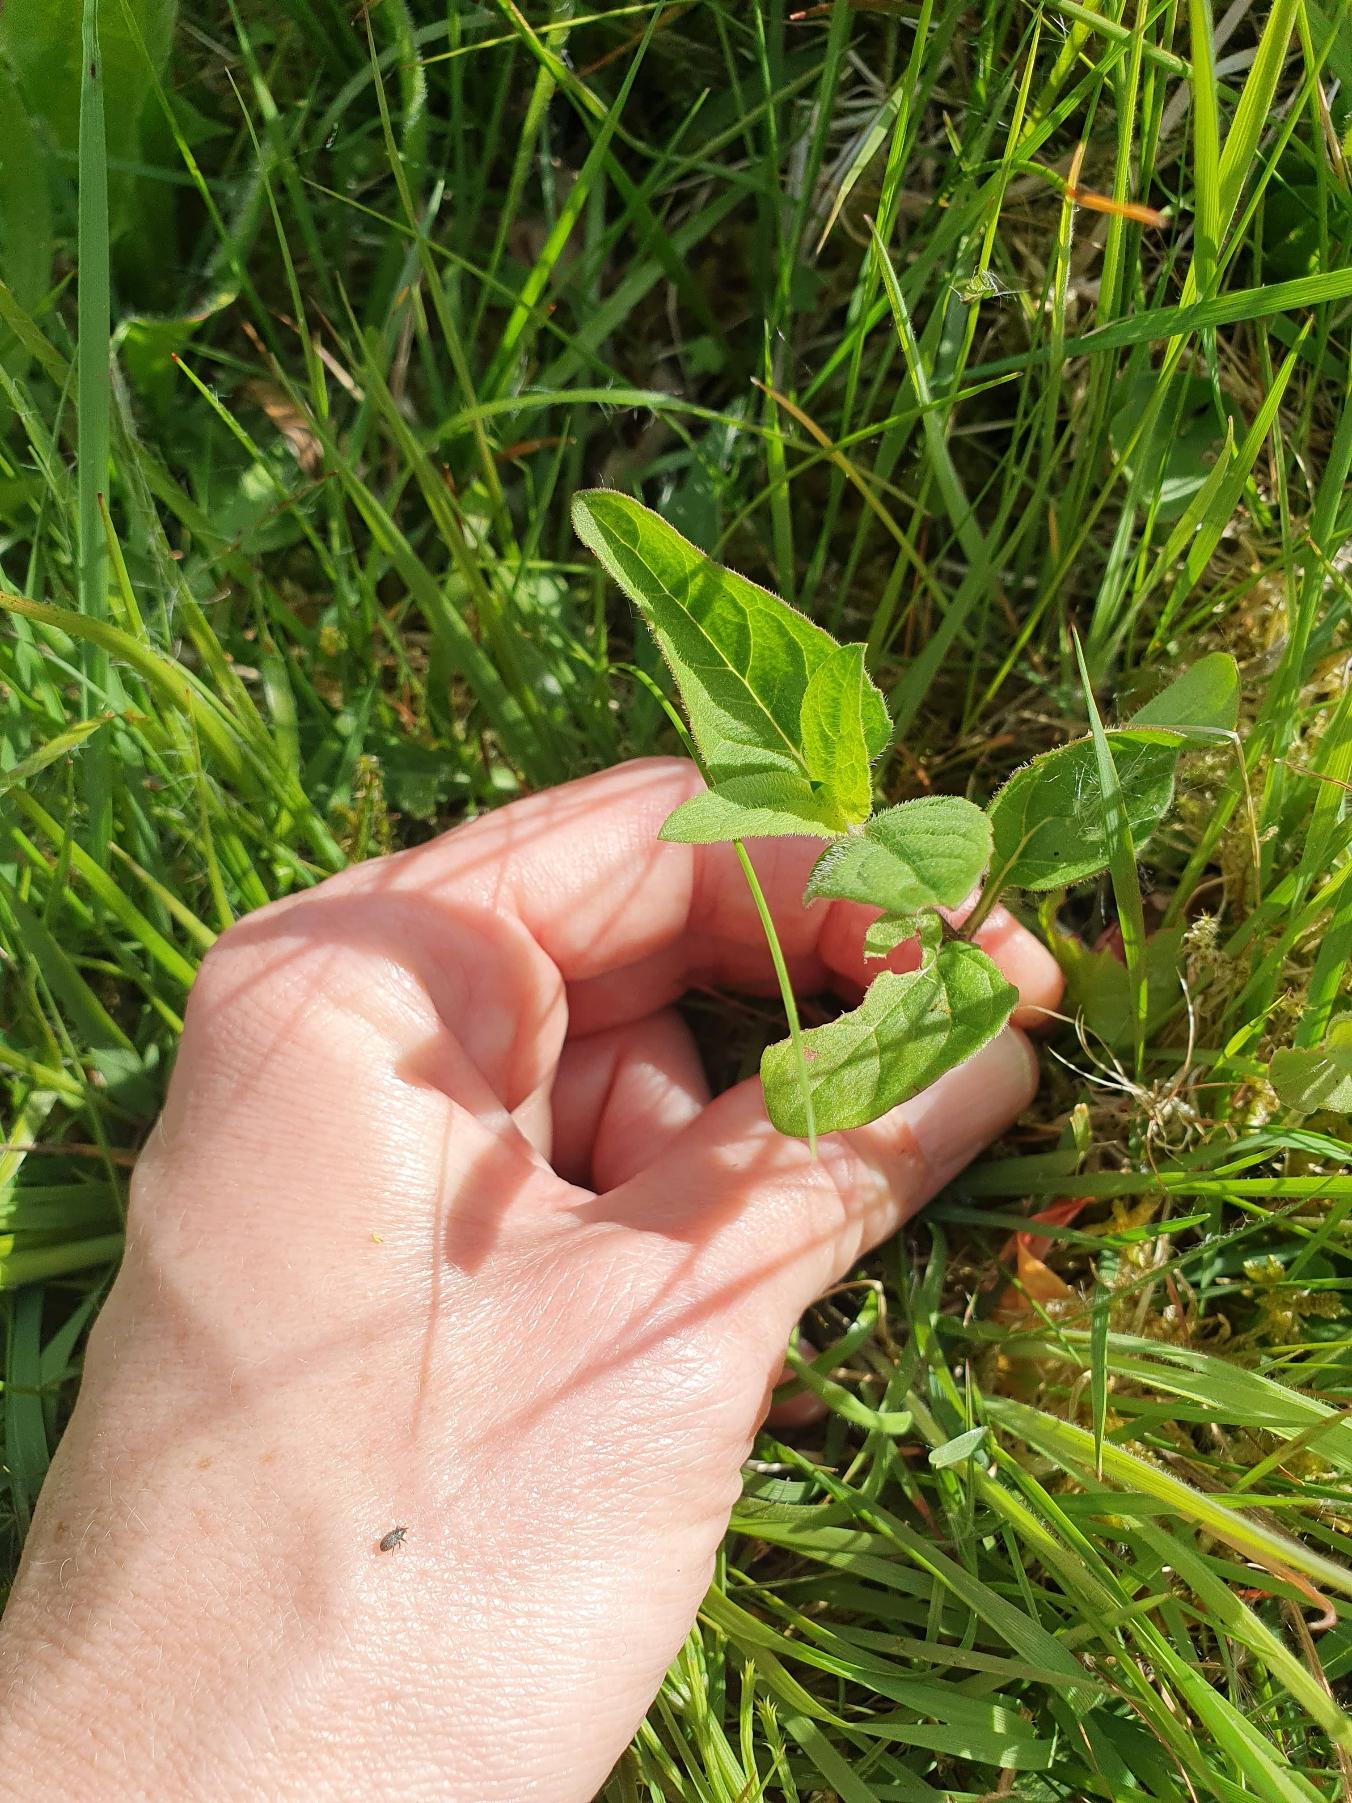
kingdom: Plantae
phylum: Tracheophyta
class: Magnoliopsida
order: Lamiales
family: Lamiaceae
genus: Prunella
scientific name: Prunella vulgaris
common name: Almindelig brunelle
